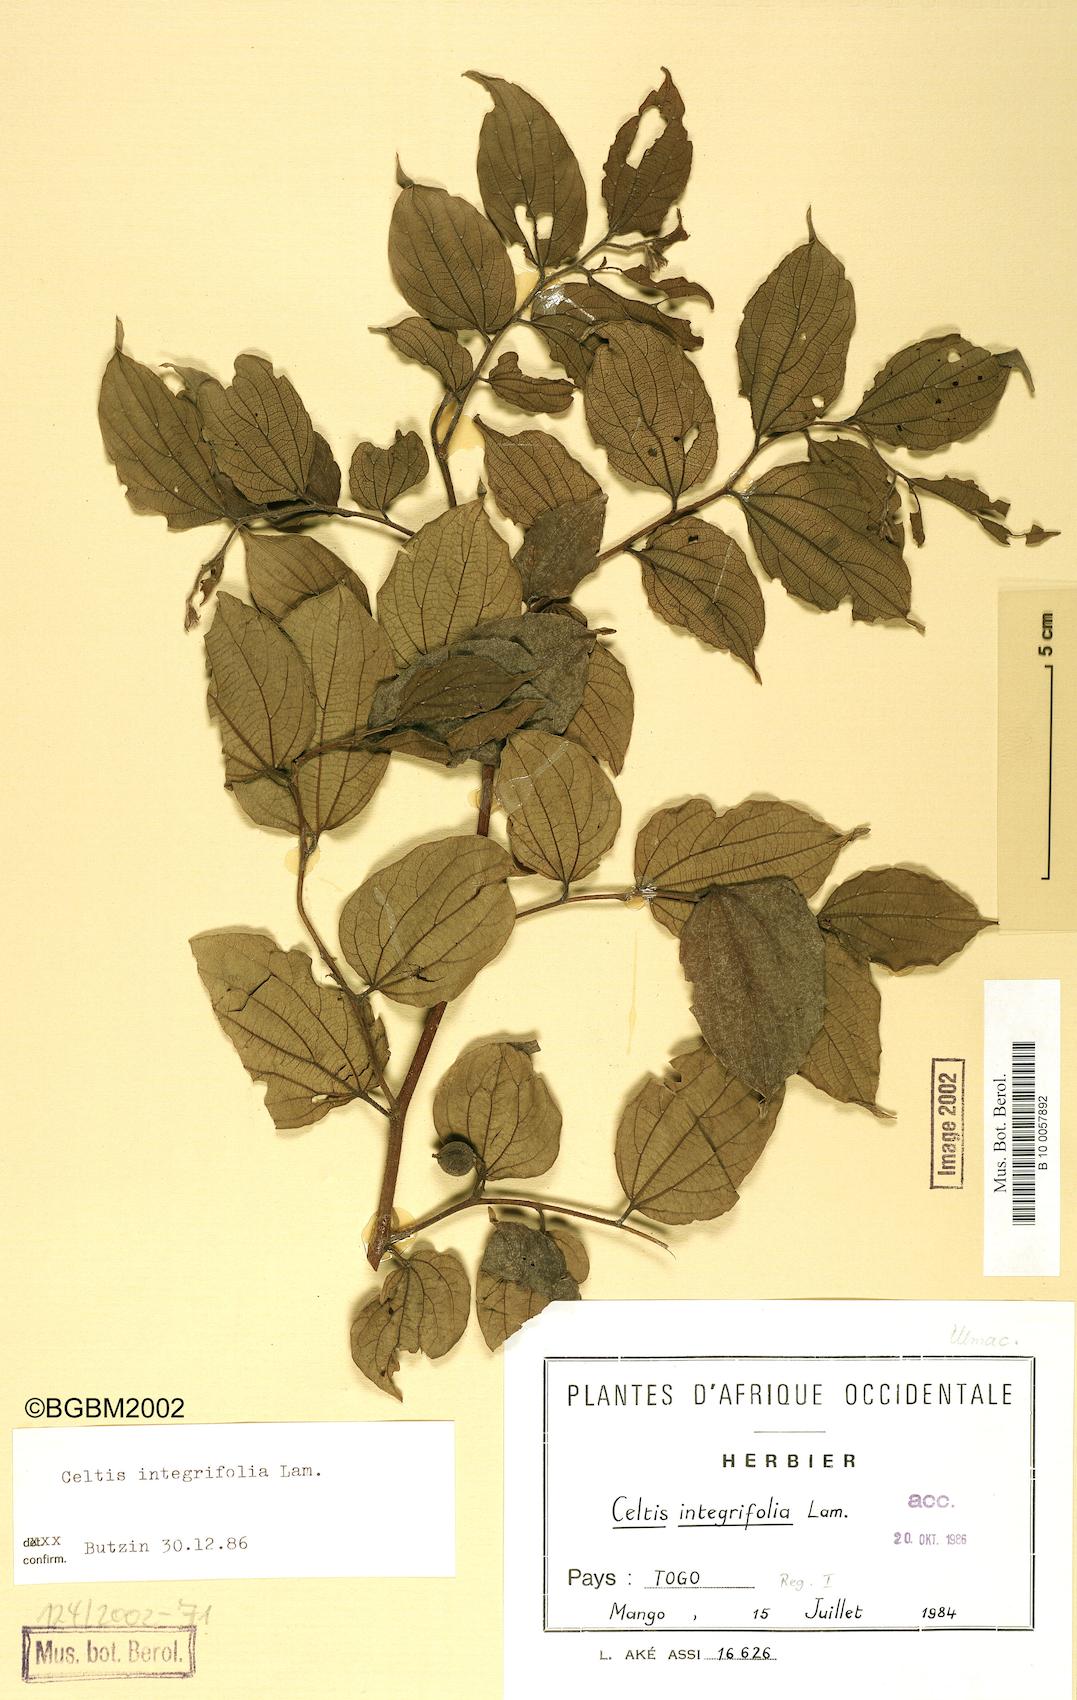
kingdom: Plantae
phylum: Tracheophyta
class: Magnoliopsida
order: Rosales
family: Cannabaceae
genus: Celtis
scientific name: Celtis toka
